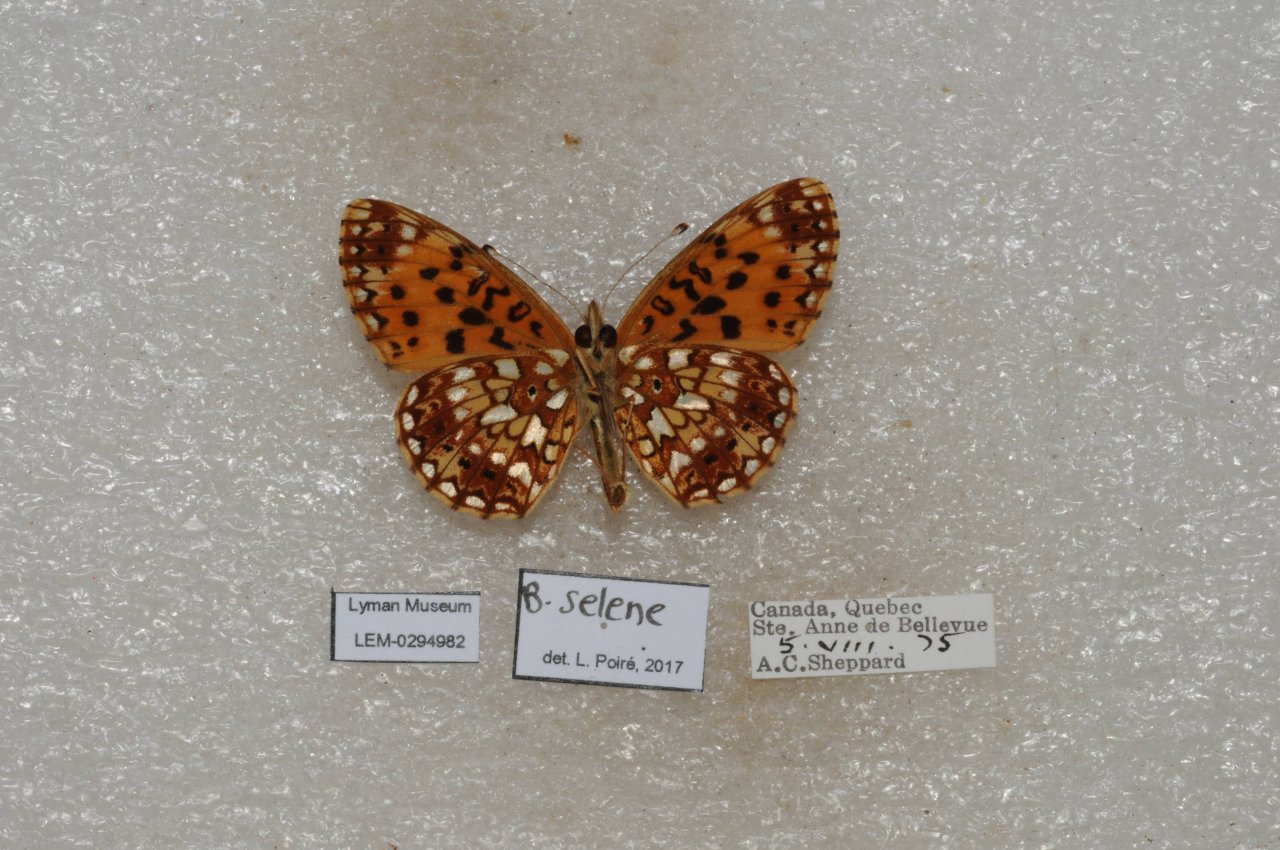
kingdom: Animalia
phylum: Arthropoda
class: Insecta
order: Lepidoptera
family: Nymphalidae
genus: Boloria
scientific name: Boloria selene
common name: Silver-bordered Fritillary
